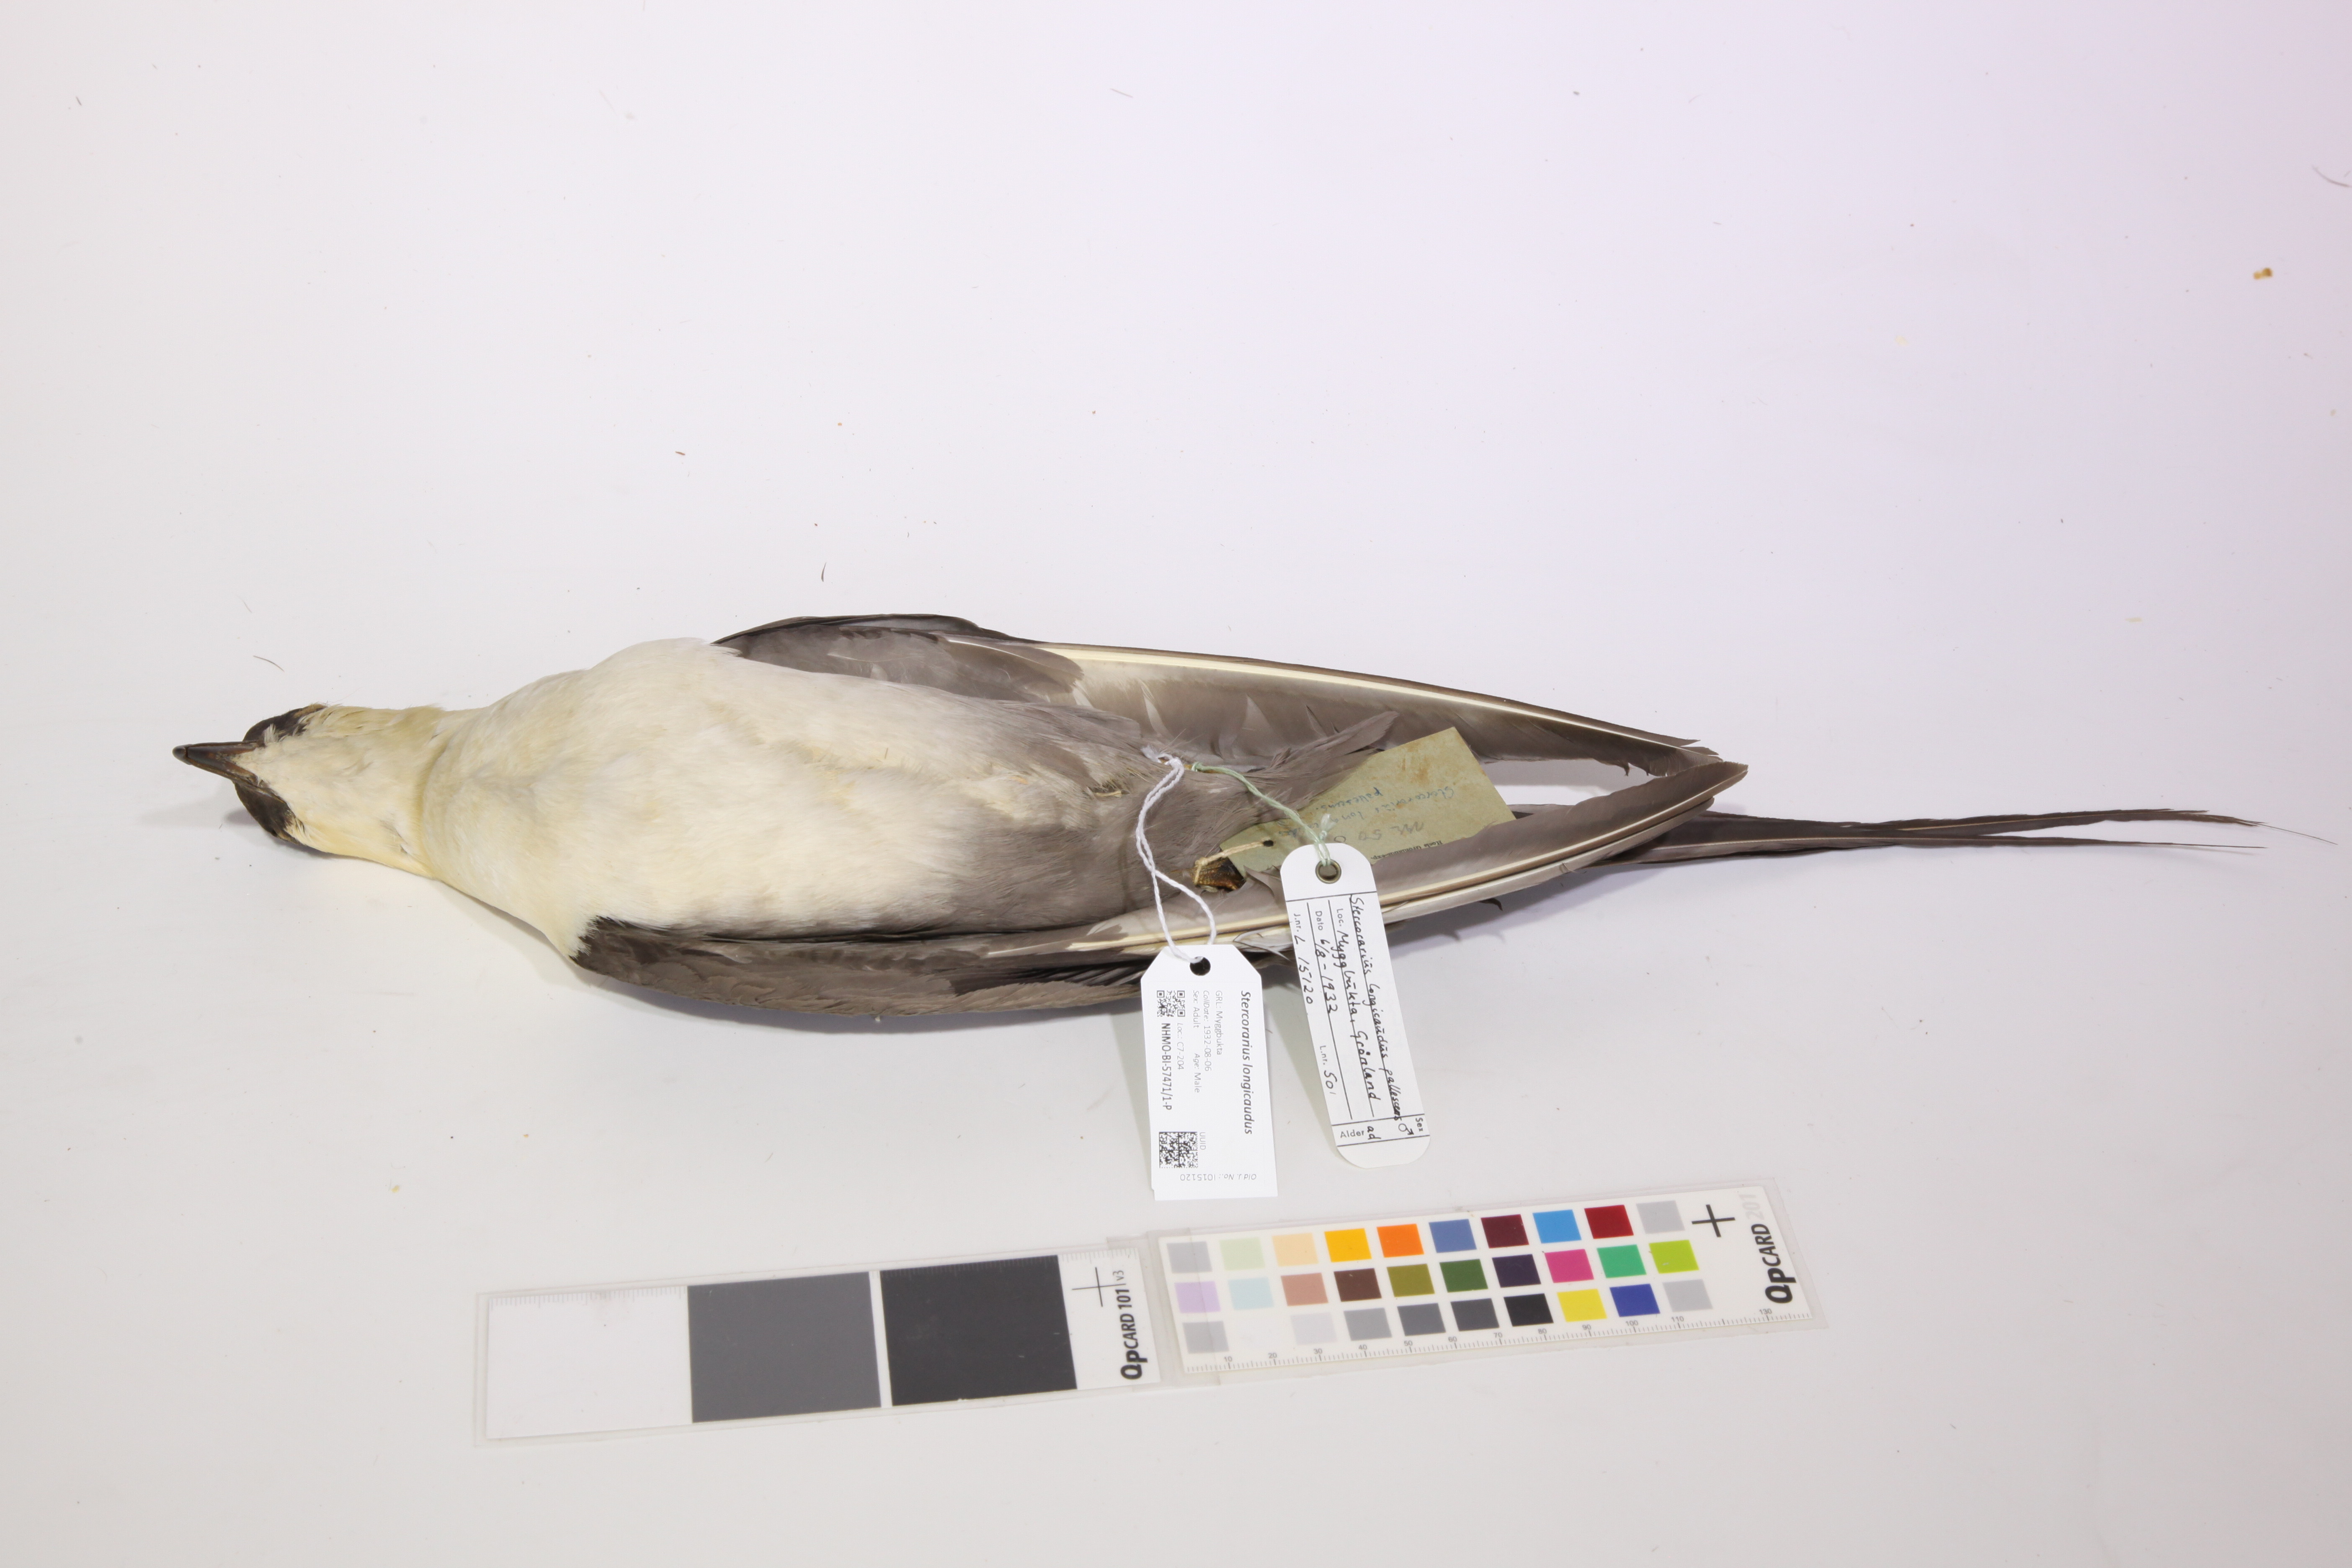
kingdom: Animalia
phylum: Chordata
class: Aves
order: Charadriiformes
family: Stercorariidae
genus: Stercorarius
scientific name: Stercorarius longicaudus
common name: Long-tailed jaeger
